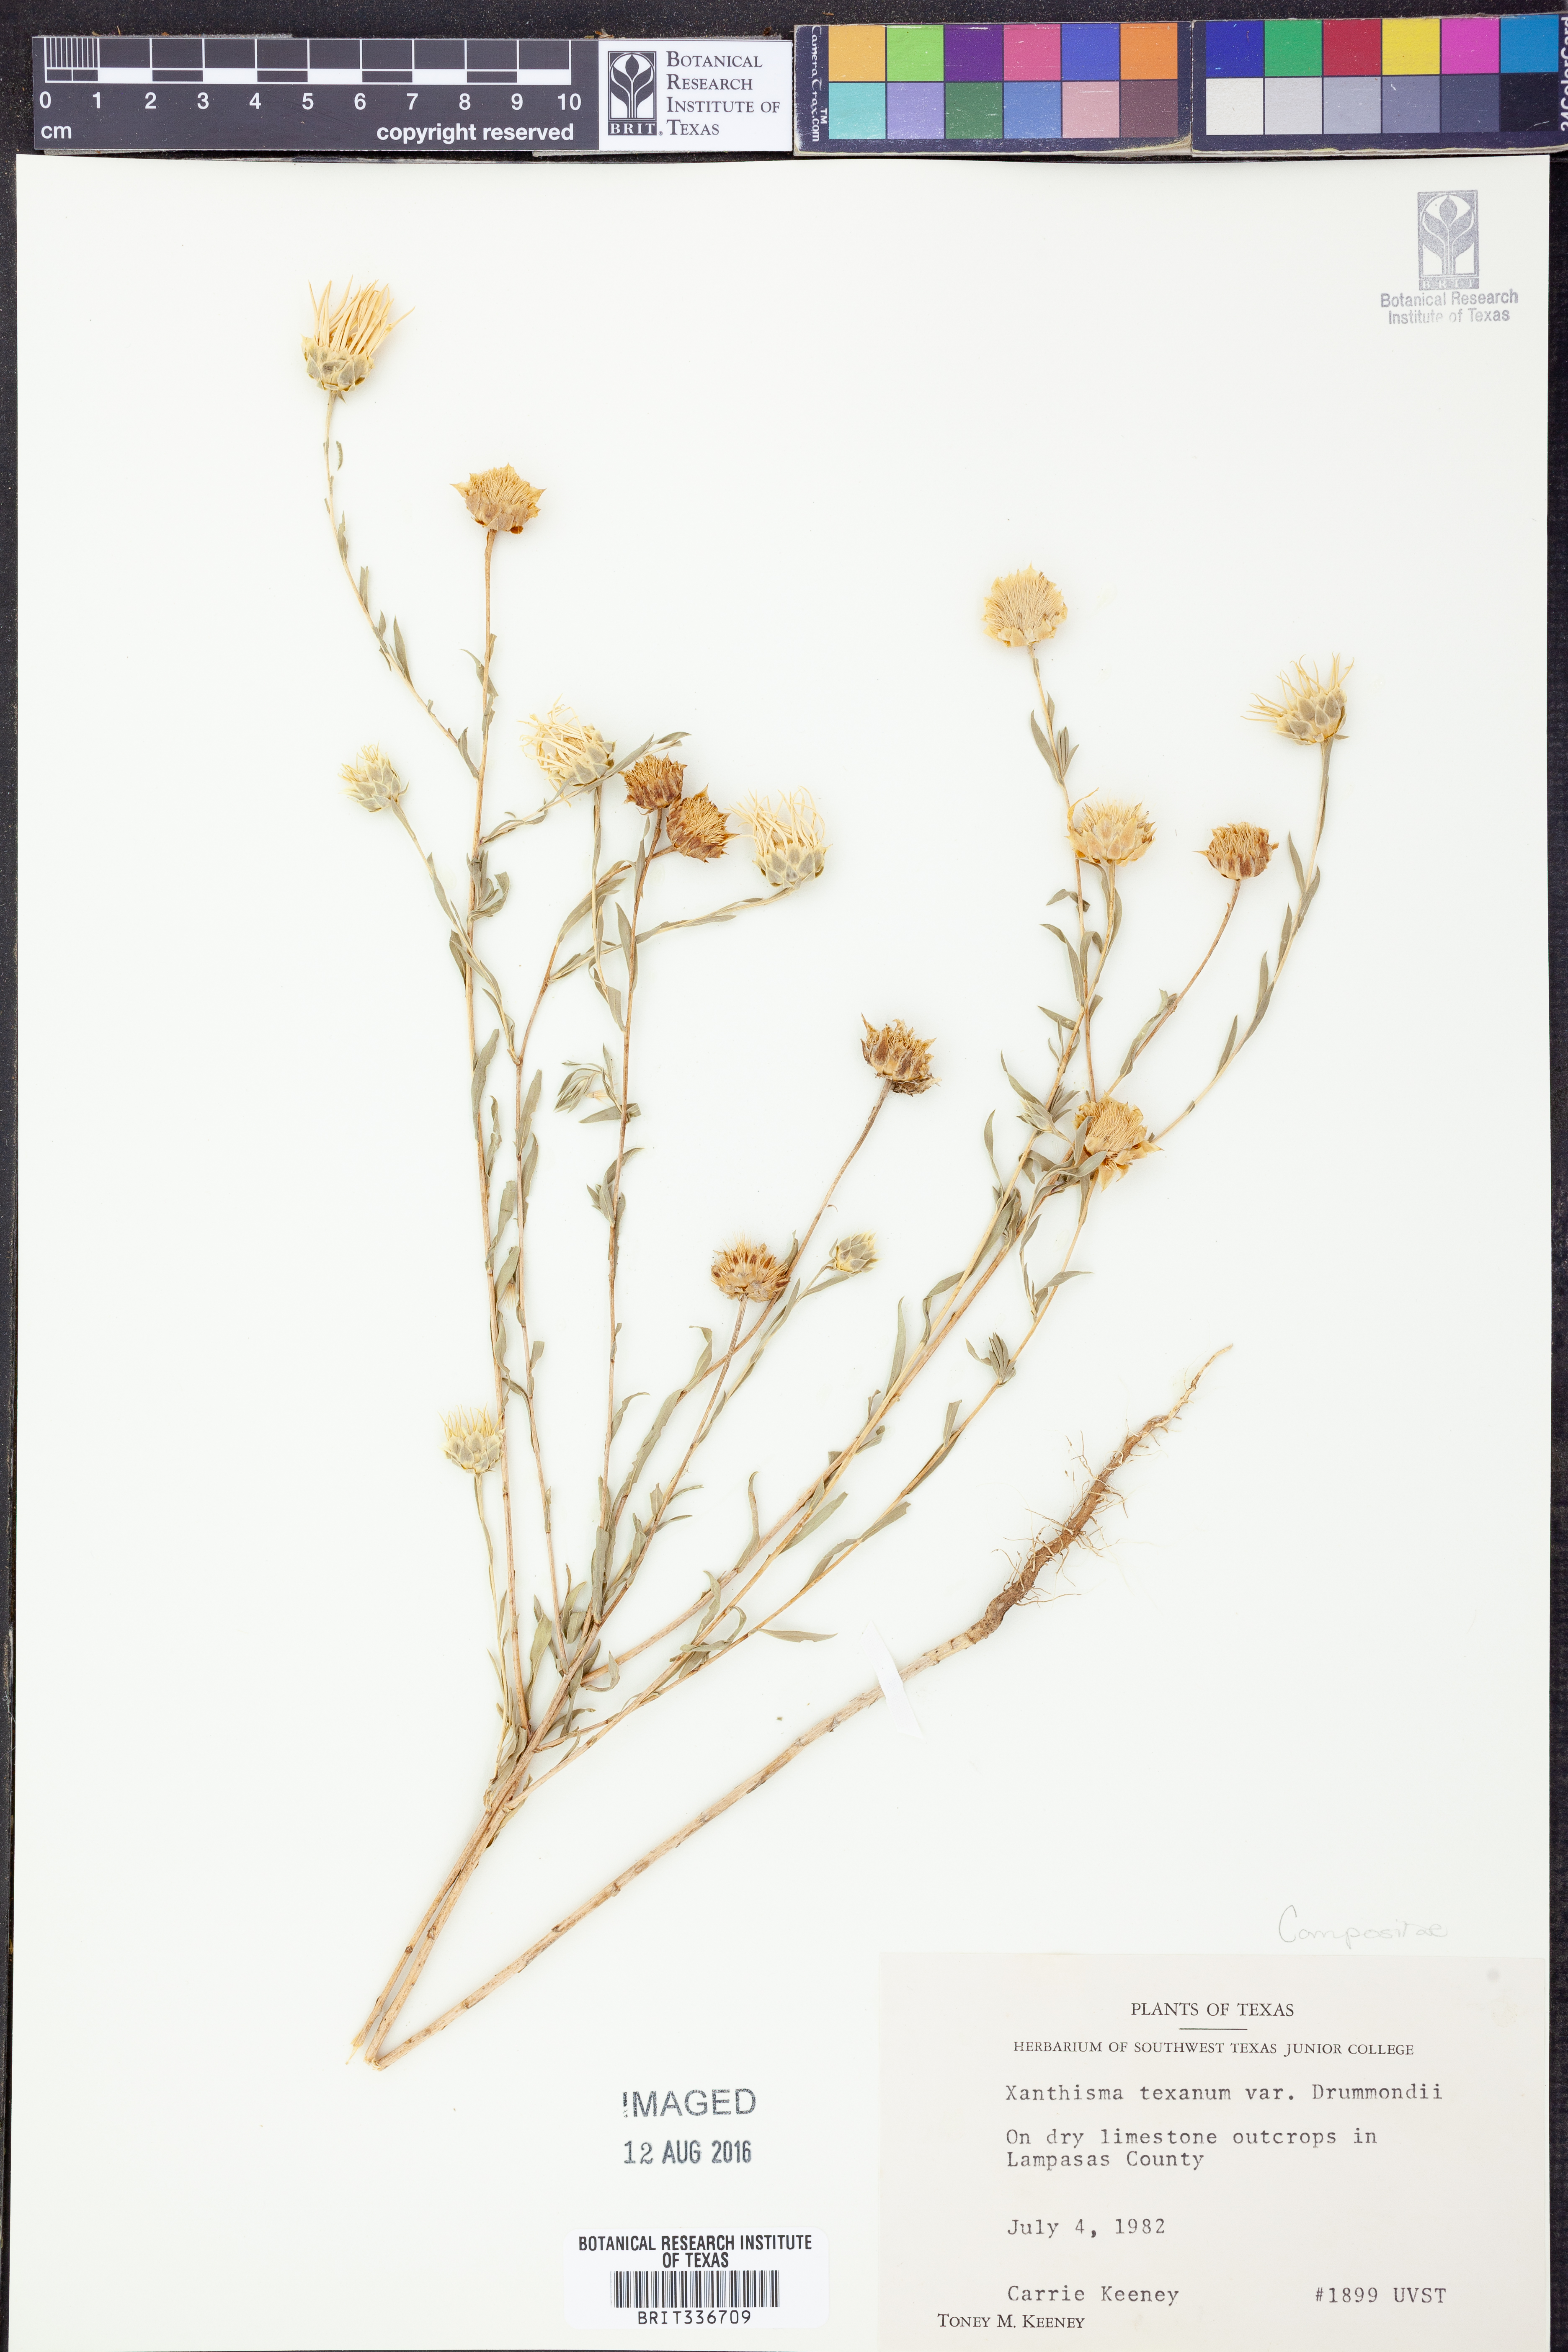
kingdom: Plantae
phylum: Tracheophyta
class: Magnoliopsida
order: Asterales
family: Asteraceae
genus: Xanthisma
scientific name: Xanthisma texanum
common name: Texas sleepy daisy
